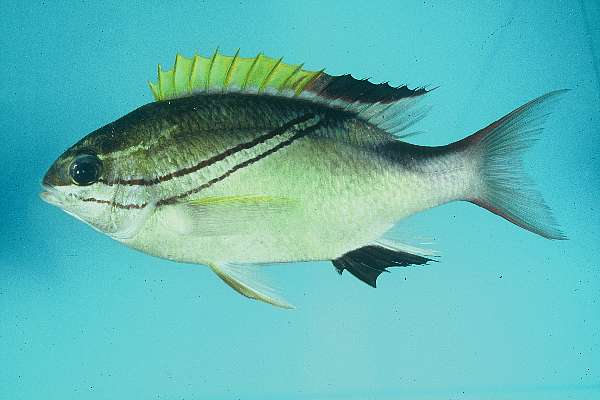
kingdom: Animalia
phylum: Chordata
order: Perciformes
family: Nemipteridae
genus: Scolopsis
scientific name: Scolopsis bilineata
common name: Two-lined monocle bream
